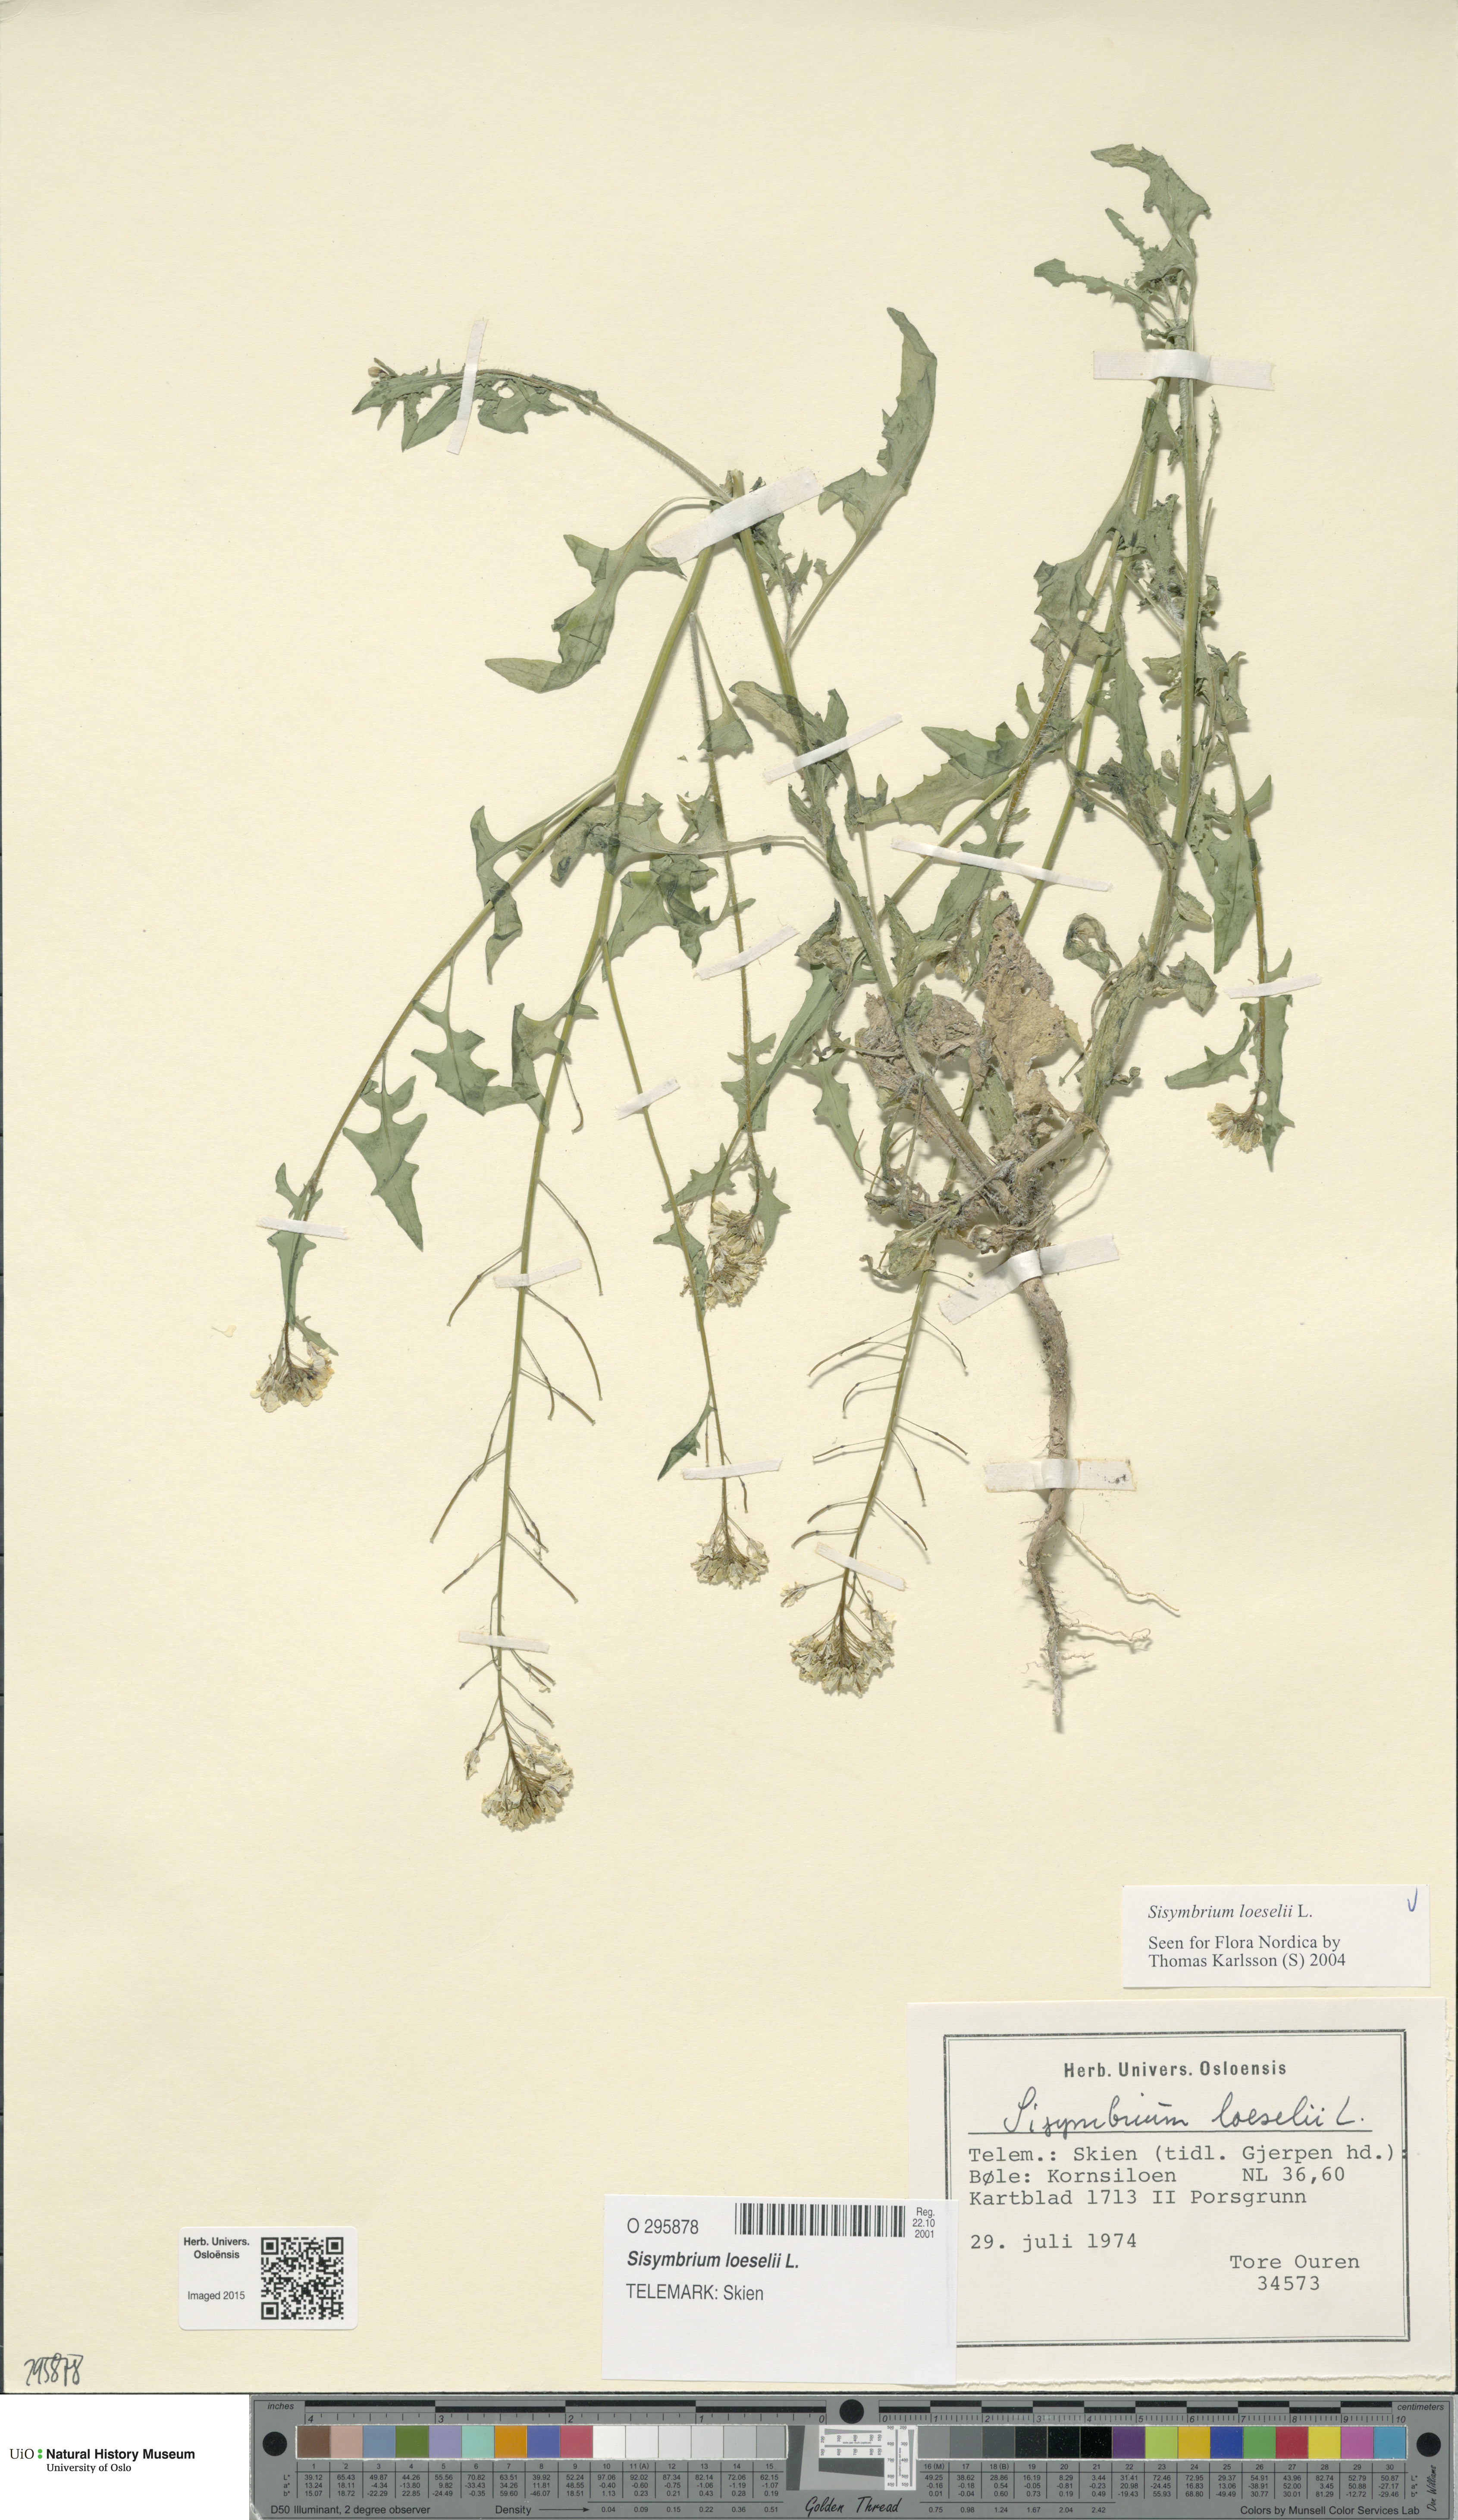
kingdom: Plantae
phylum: Tracheophyta
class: Magnoliopsida
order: Brassicales
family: Brassicaceae
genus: Sisymbrium
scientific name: Sisymbrium loeselii
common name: False london-rocket
